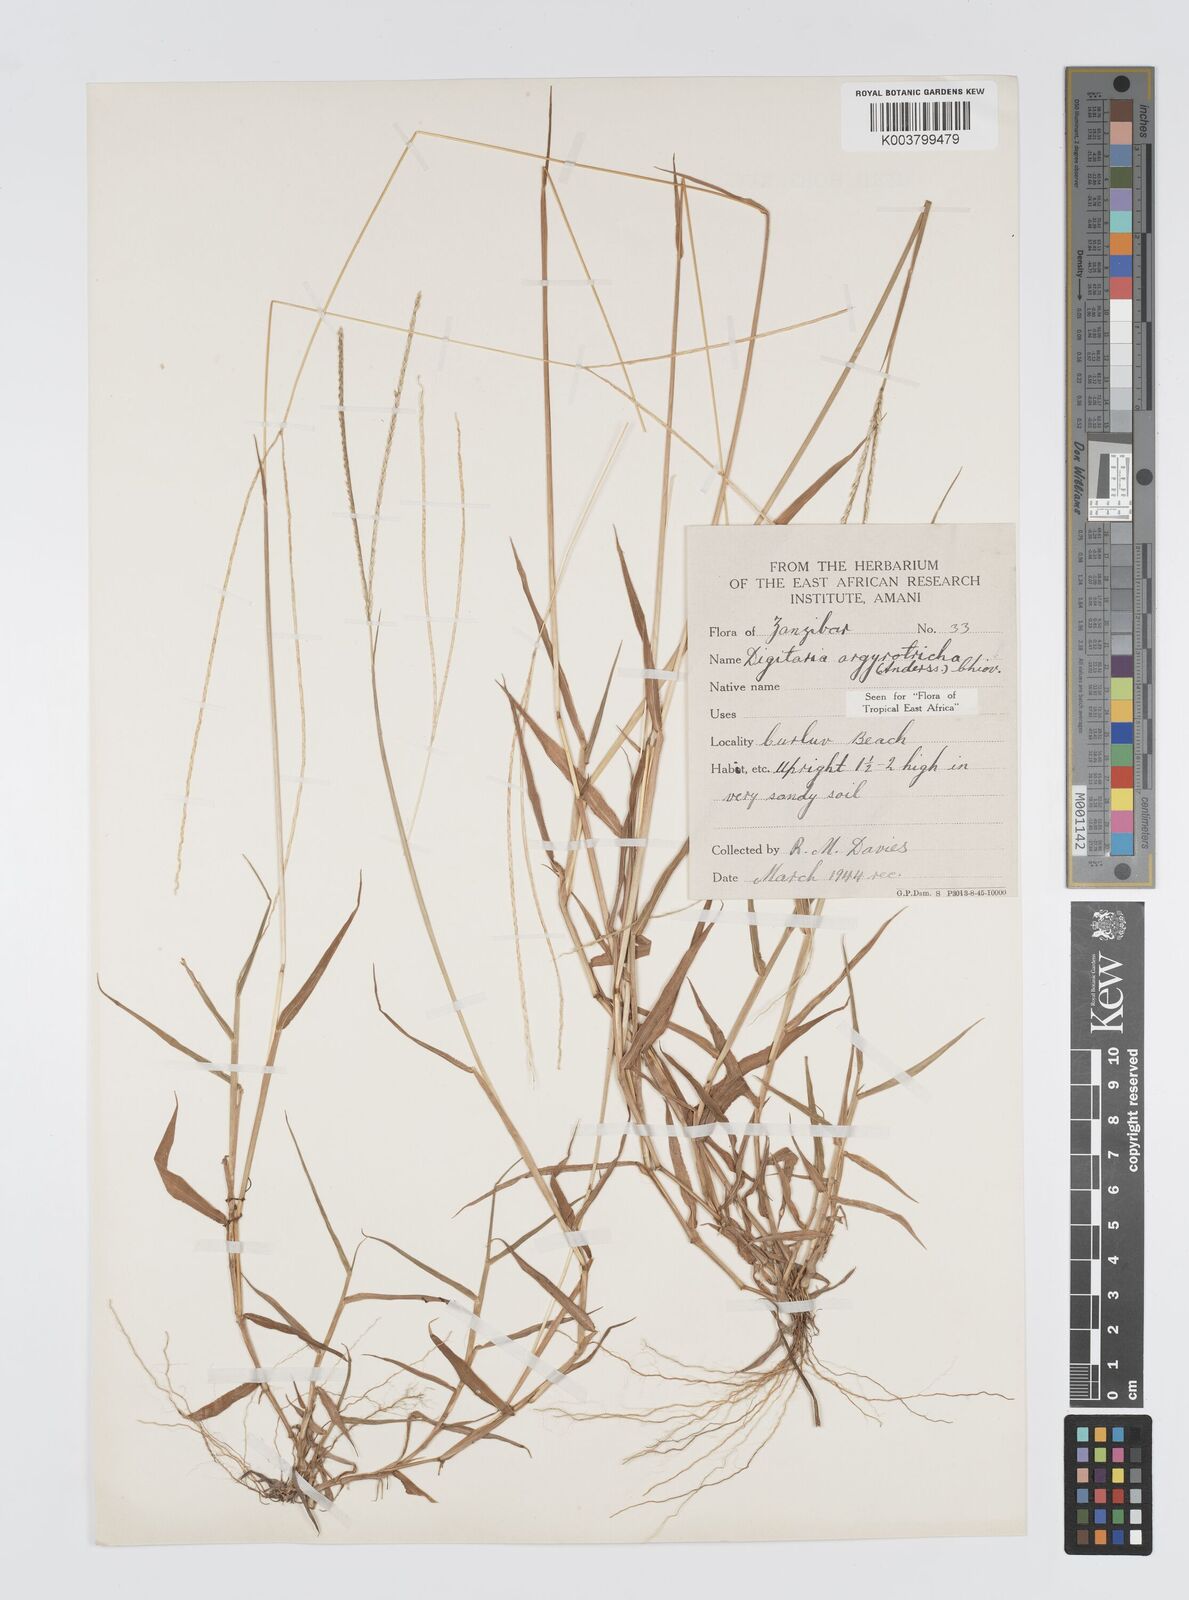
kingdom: Plantae
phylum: Tracheophyta
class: Liliopsida
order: Poales
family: Poaceae
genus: Digitaria
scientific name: Digitaria argyrotricha
